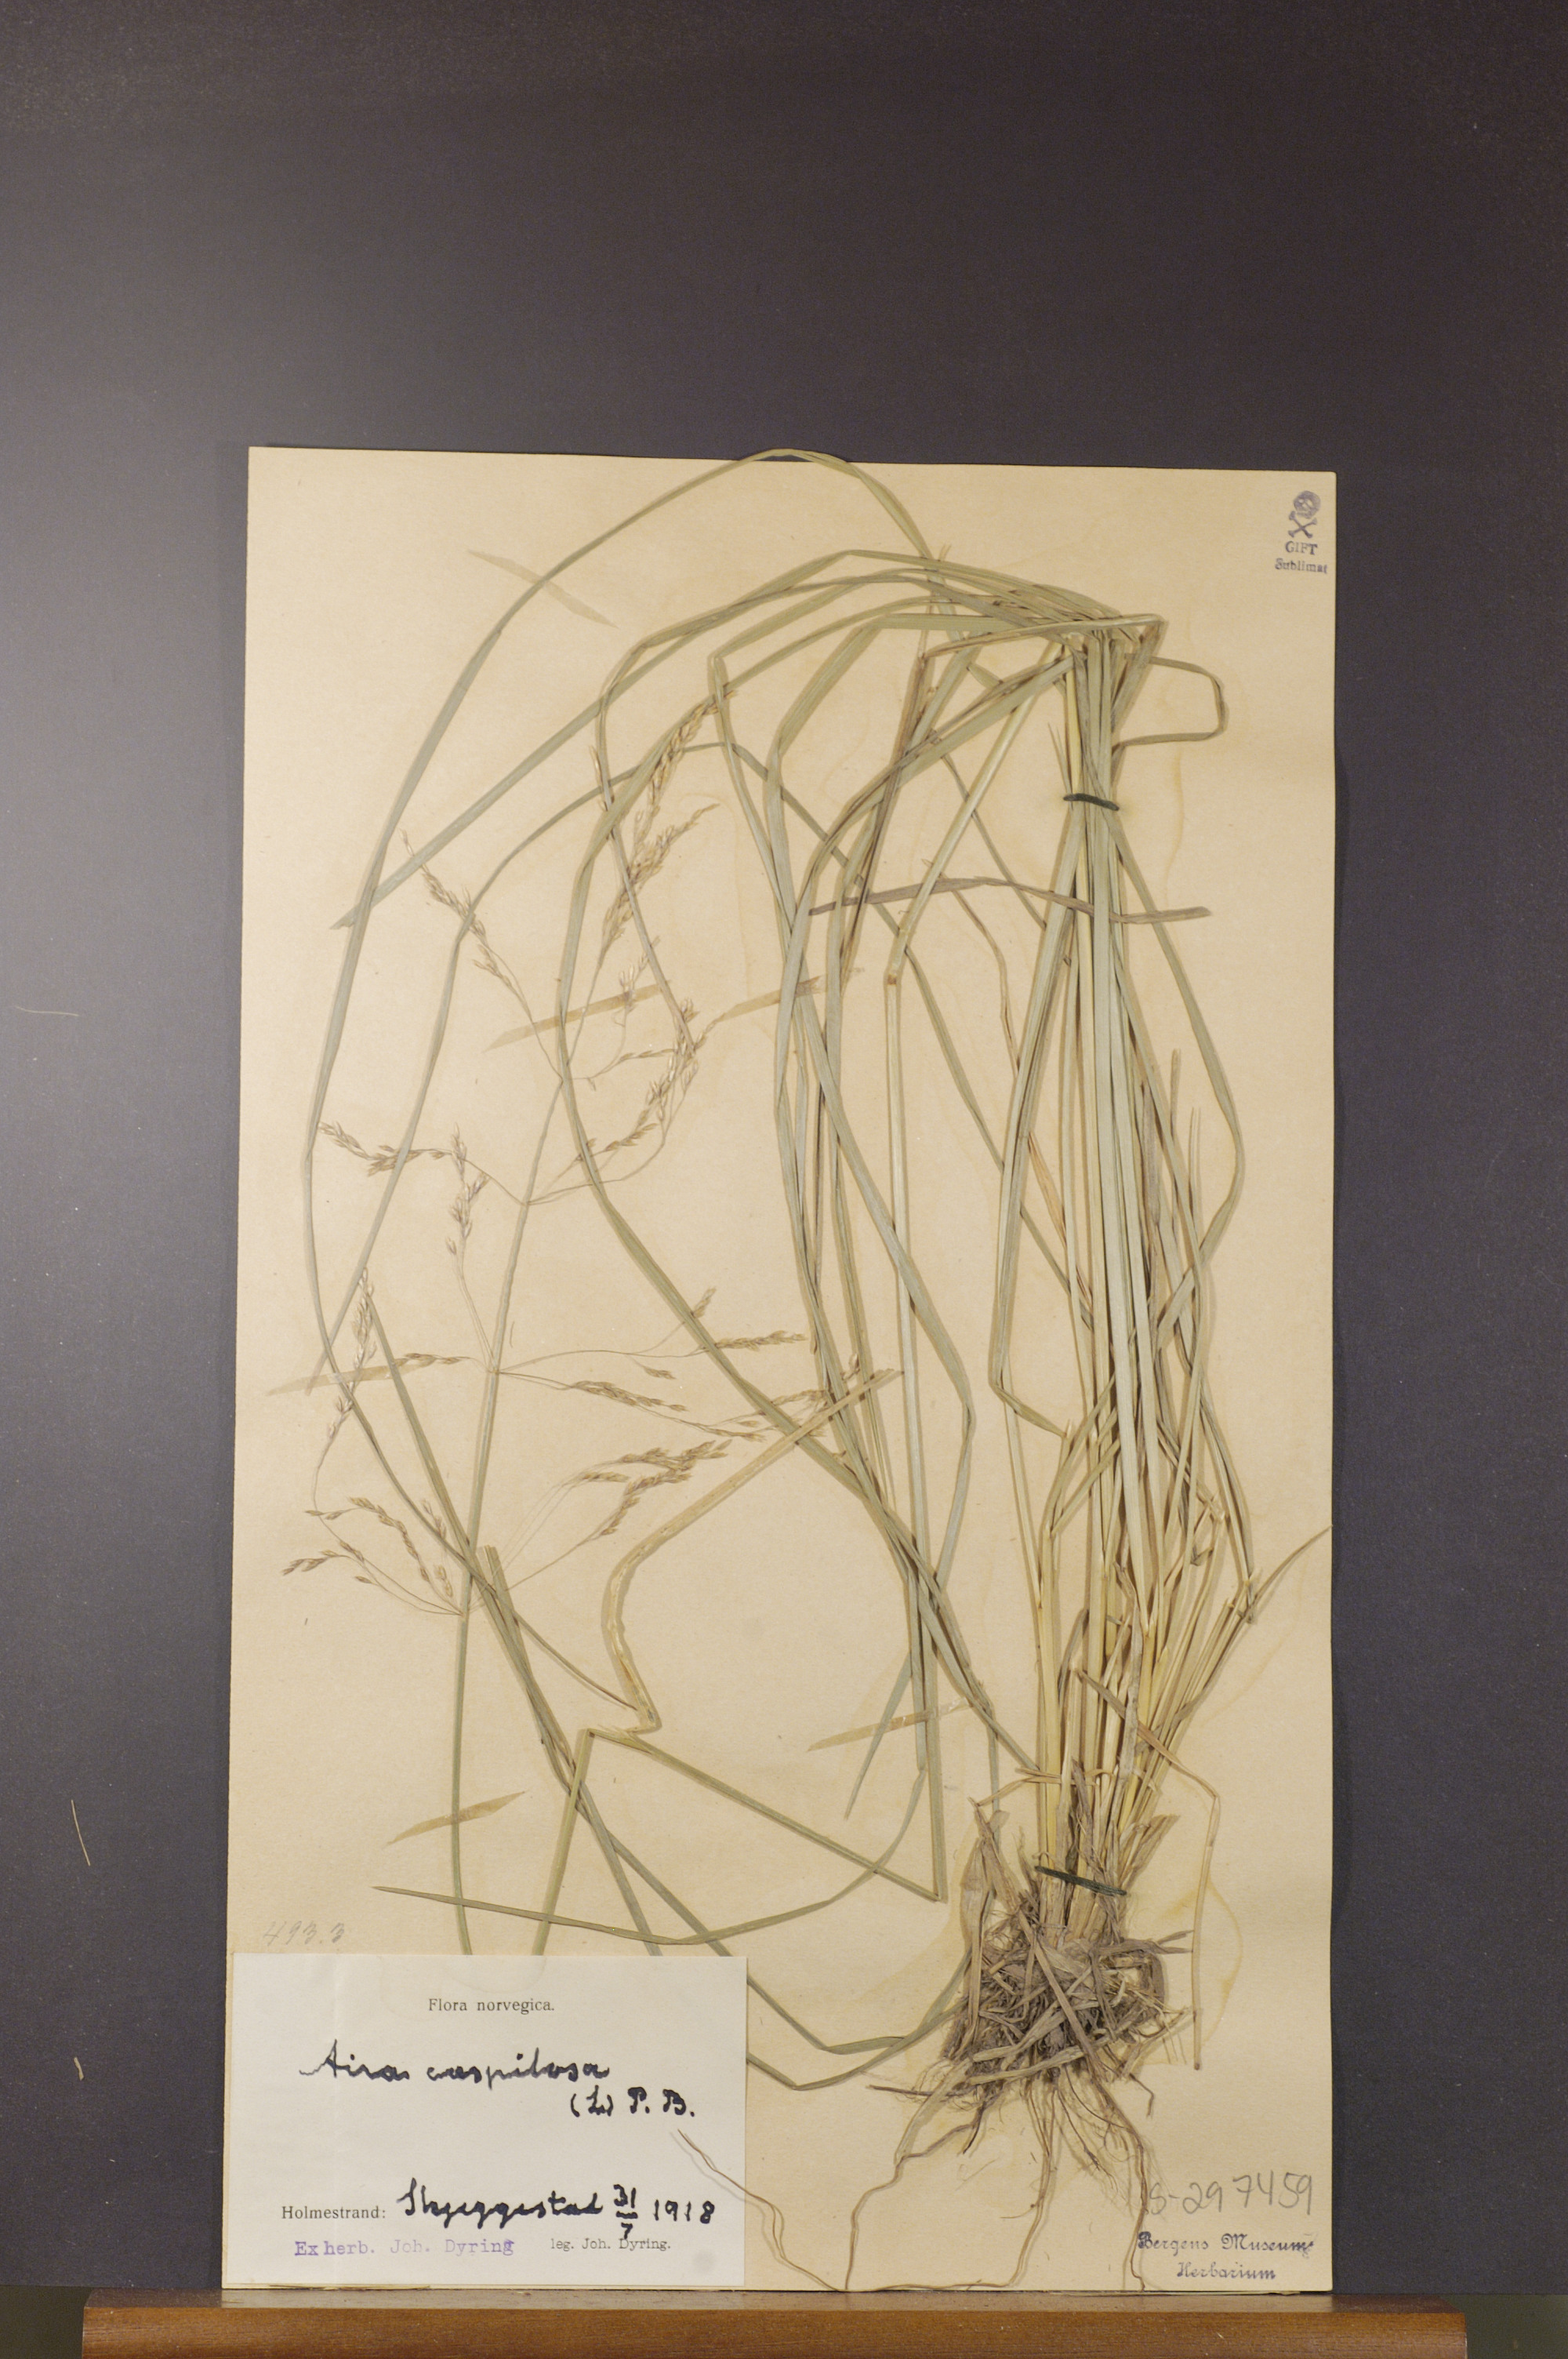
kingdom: Plantae
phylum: Tracheophyta
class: Liliopsida
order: Poales
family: Poaceae
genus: Deschampsia
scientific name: Deschampsia cespitosa
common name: Tufted hair-grass
